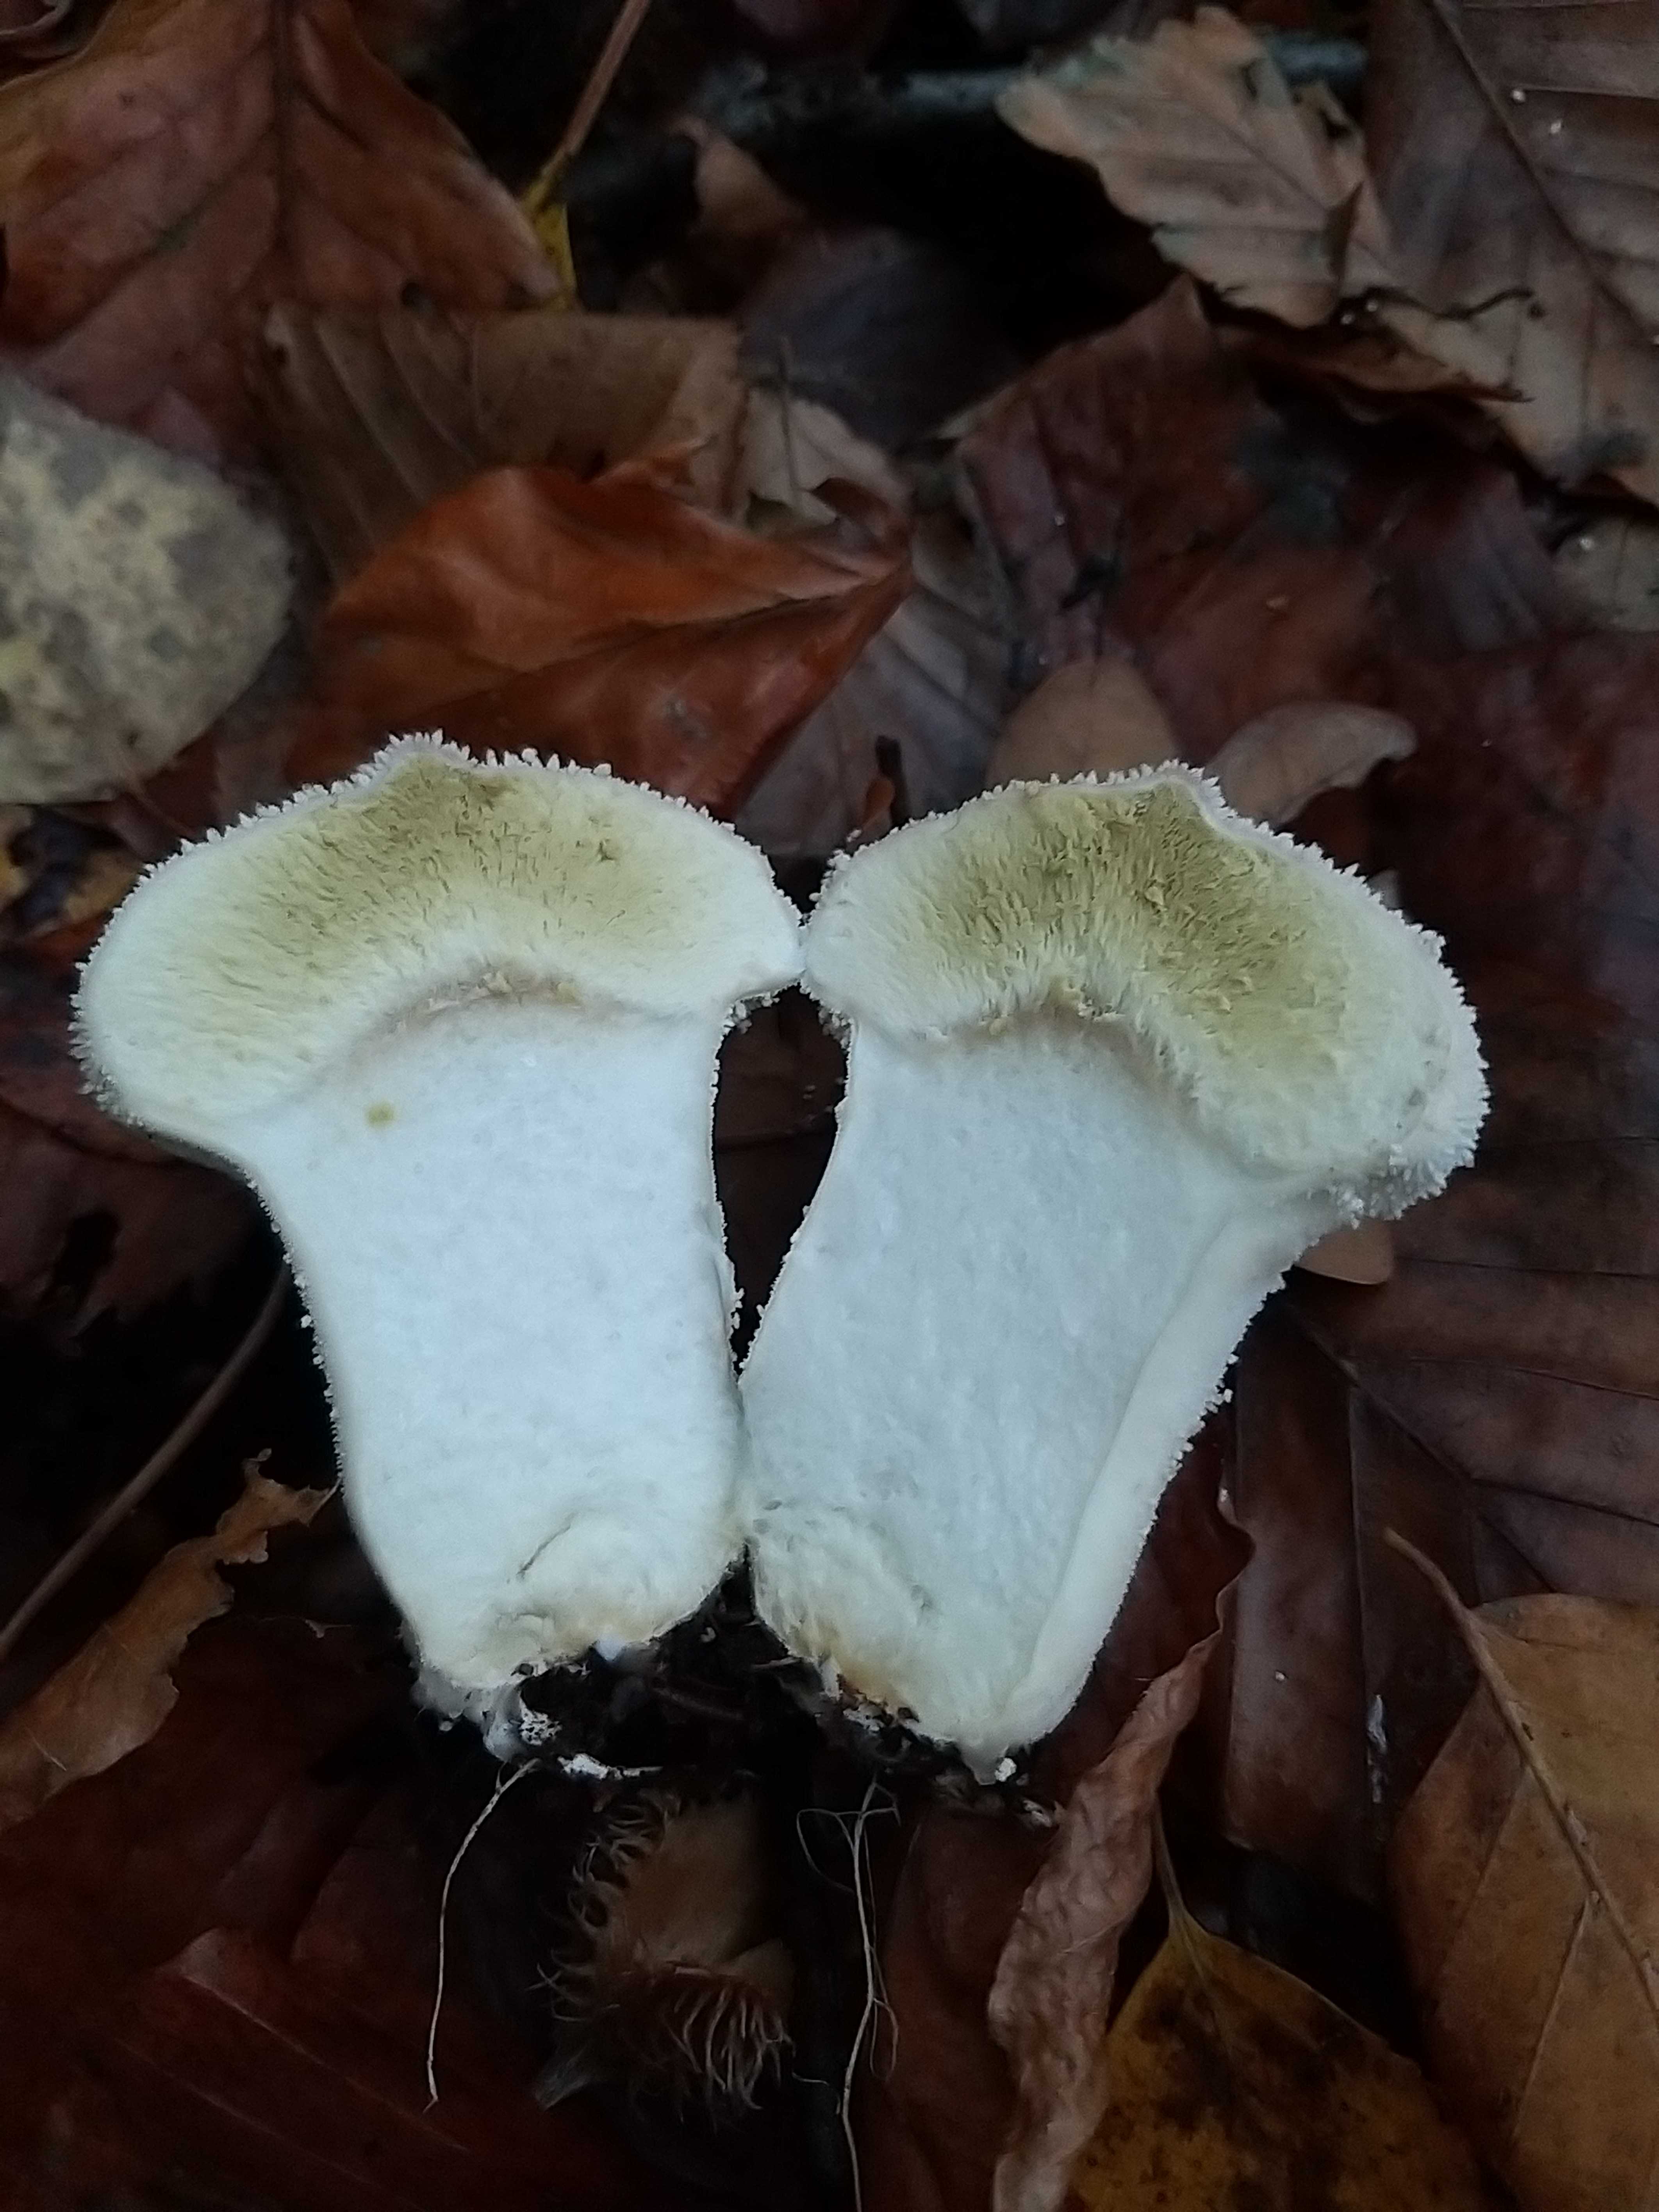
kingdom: Fungi
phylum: Basidiomycota
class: Agaricomycetes
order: Agaricales
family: Lycoperdaceae
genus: Lycoperdon
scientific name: Lycoperdon perlatum
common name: krystal-støvbold
